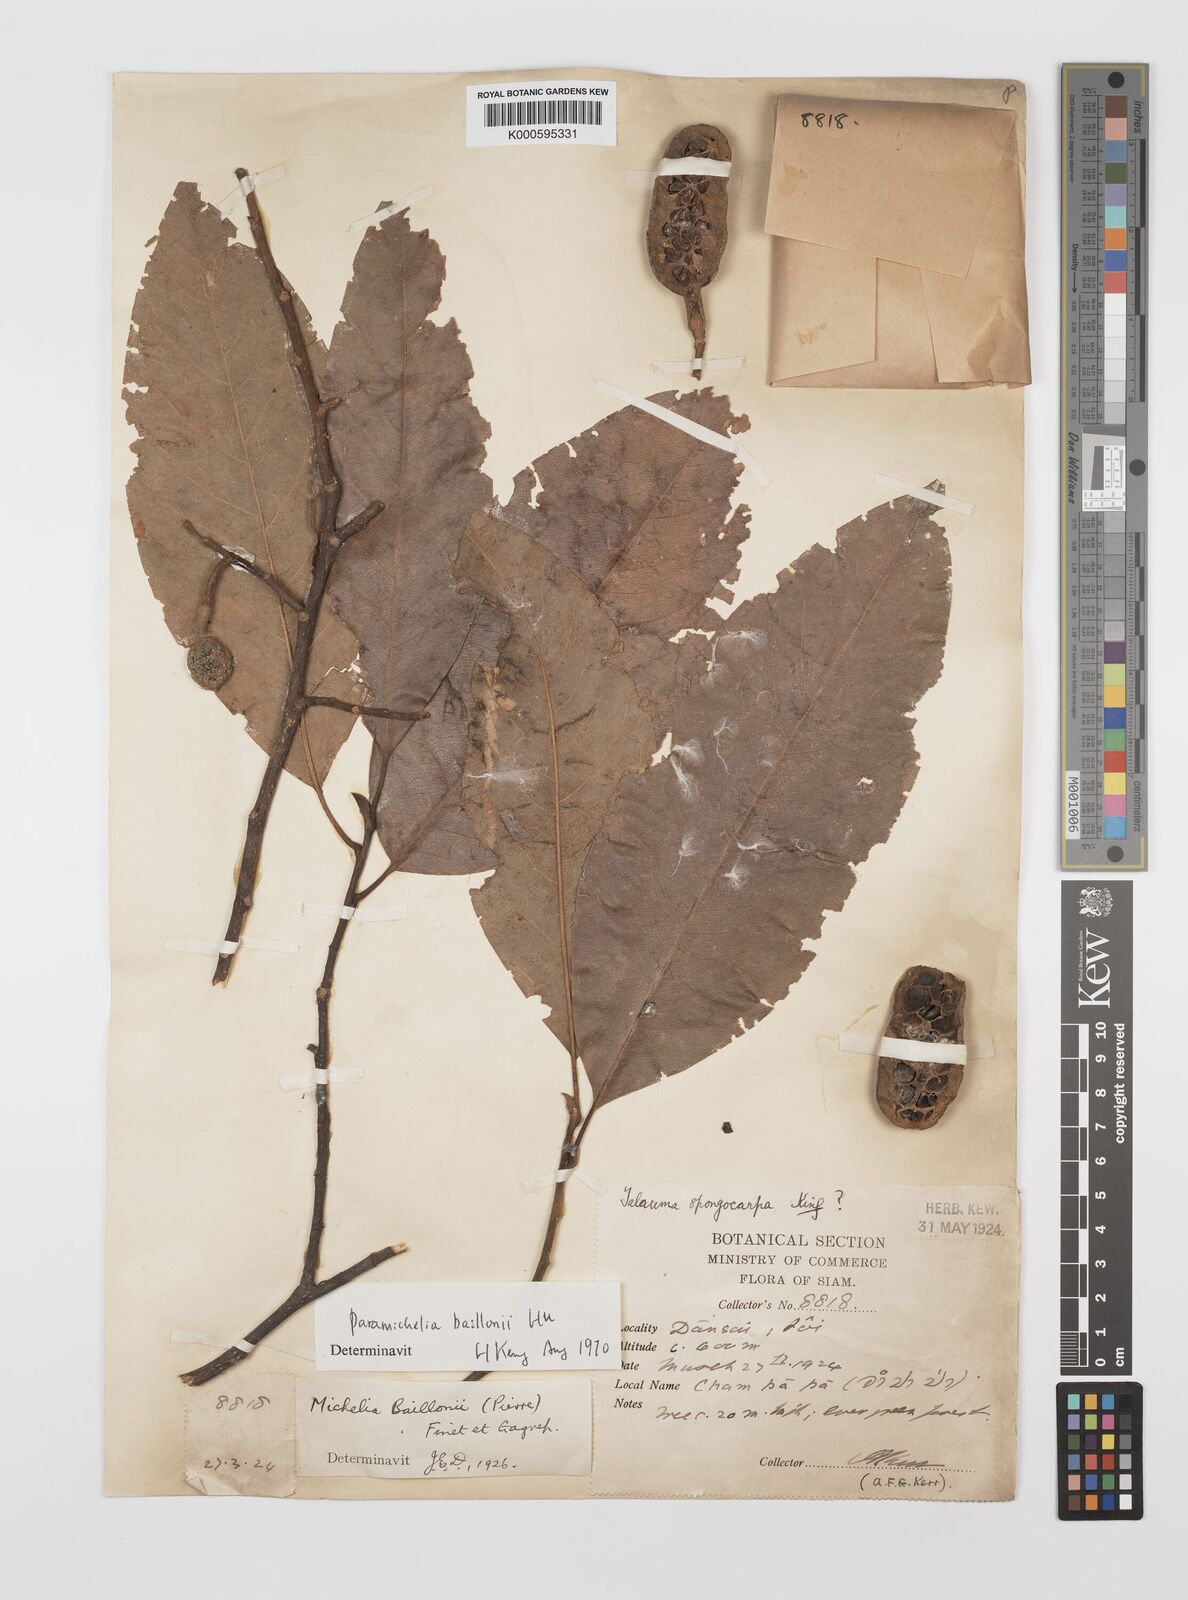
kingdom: Plantae
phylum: Tracheophyta
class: Magnoliopsida
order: Magnoliales
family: Magnoliaceae
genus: Magnolia
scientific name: Magnolia baillonii
